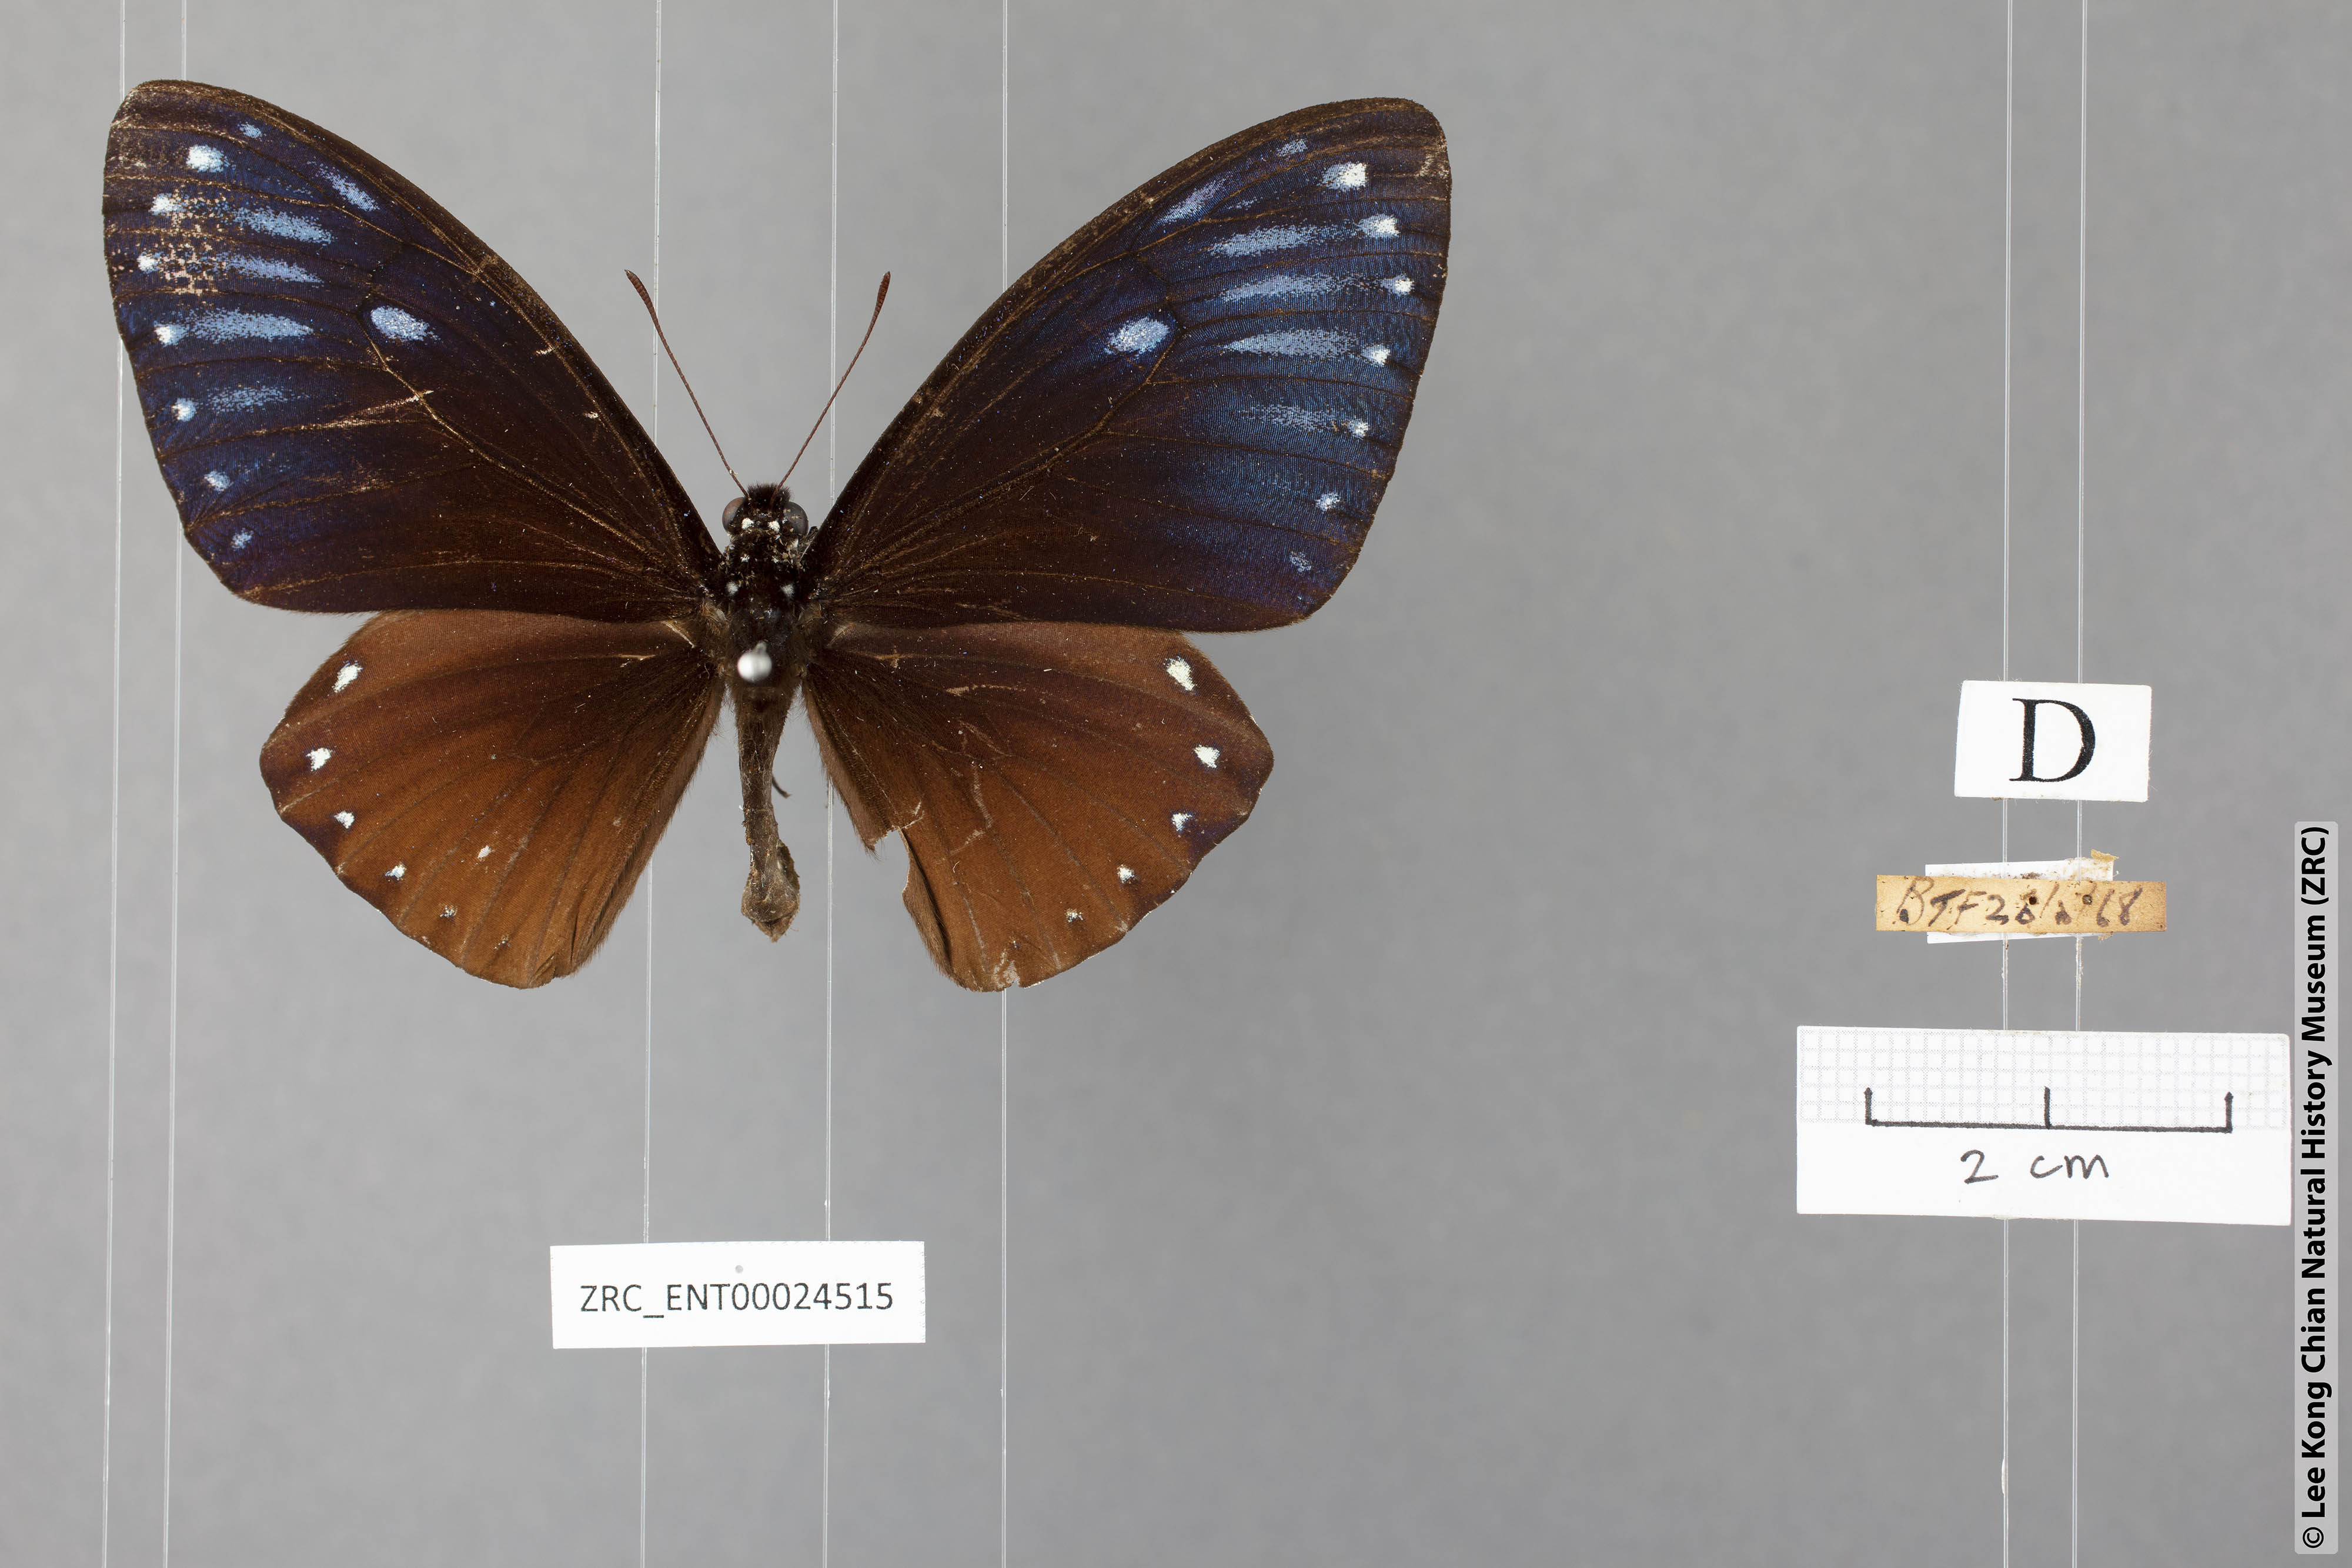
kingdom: Animalia
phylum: Arthropoda
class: Insecta
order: Lepidoptera
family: Papilionidae
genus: Chilasa
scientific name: Chilasa paradoxa
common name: Great mime
